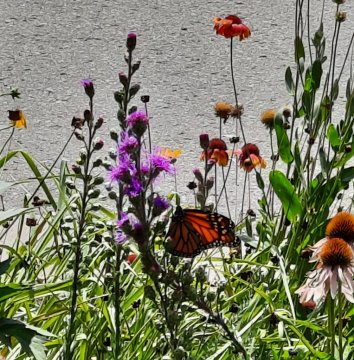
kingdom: Animalia
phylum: Arthropoda
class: Insecta
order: Lepidoptera
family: Nymphalidae
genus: Danaus
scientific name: Danaus plexippus
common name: Monarch
